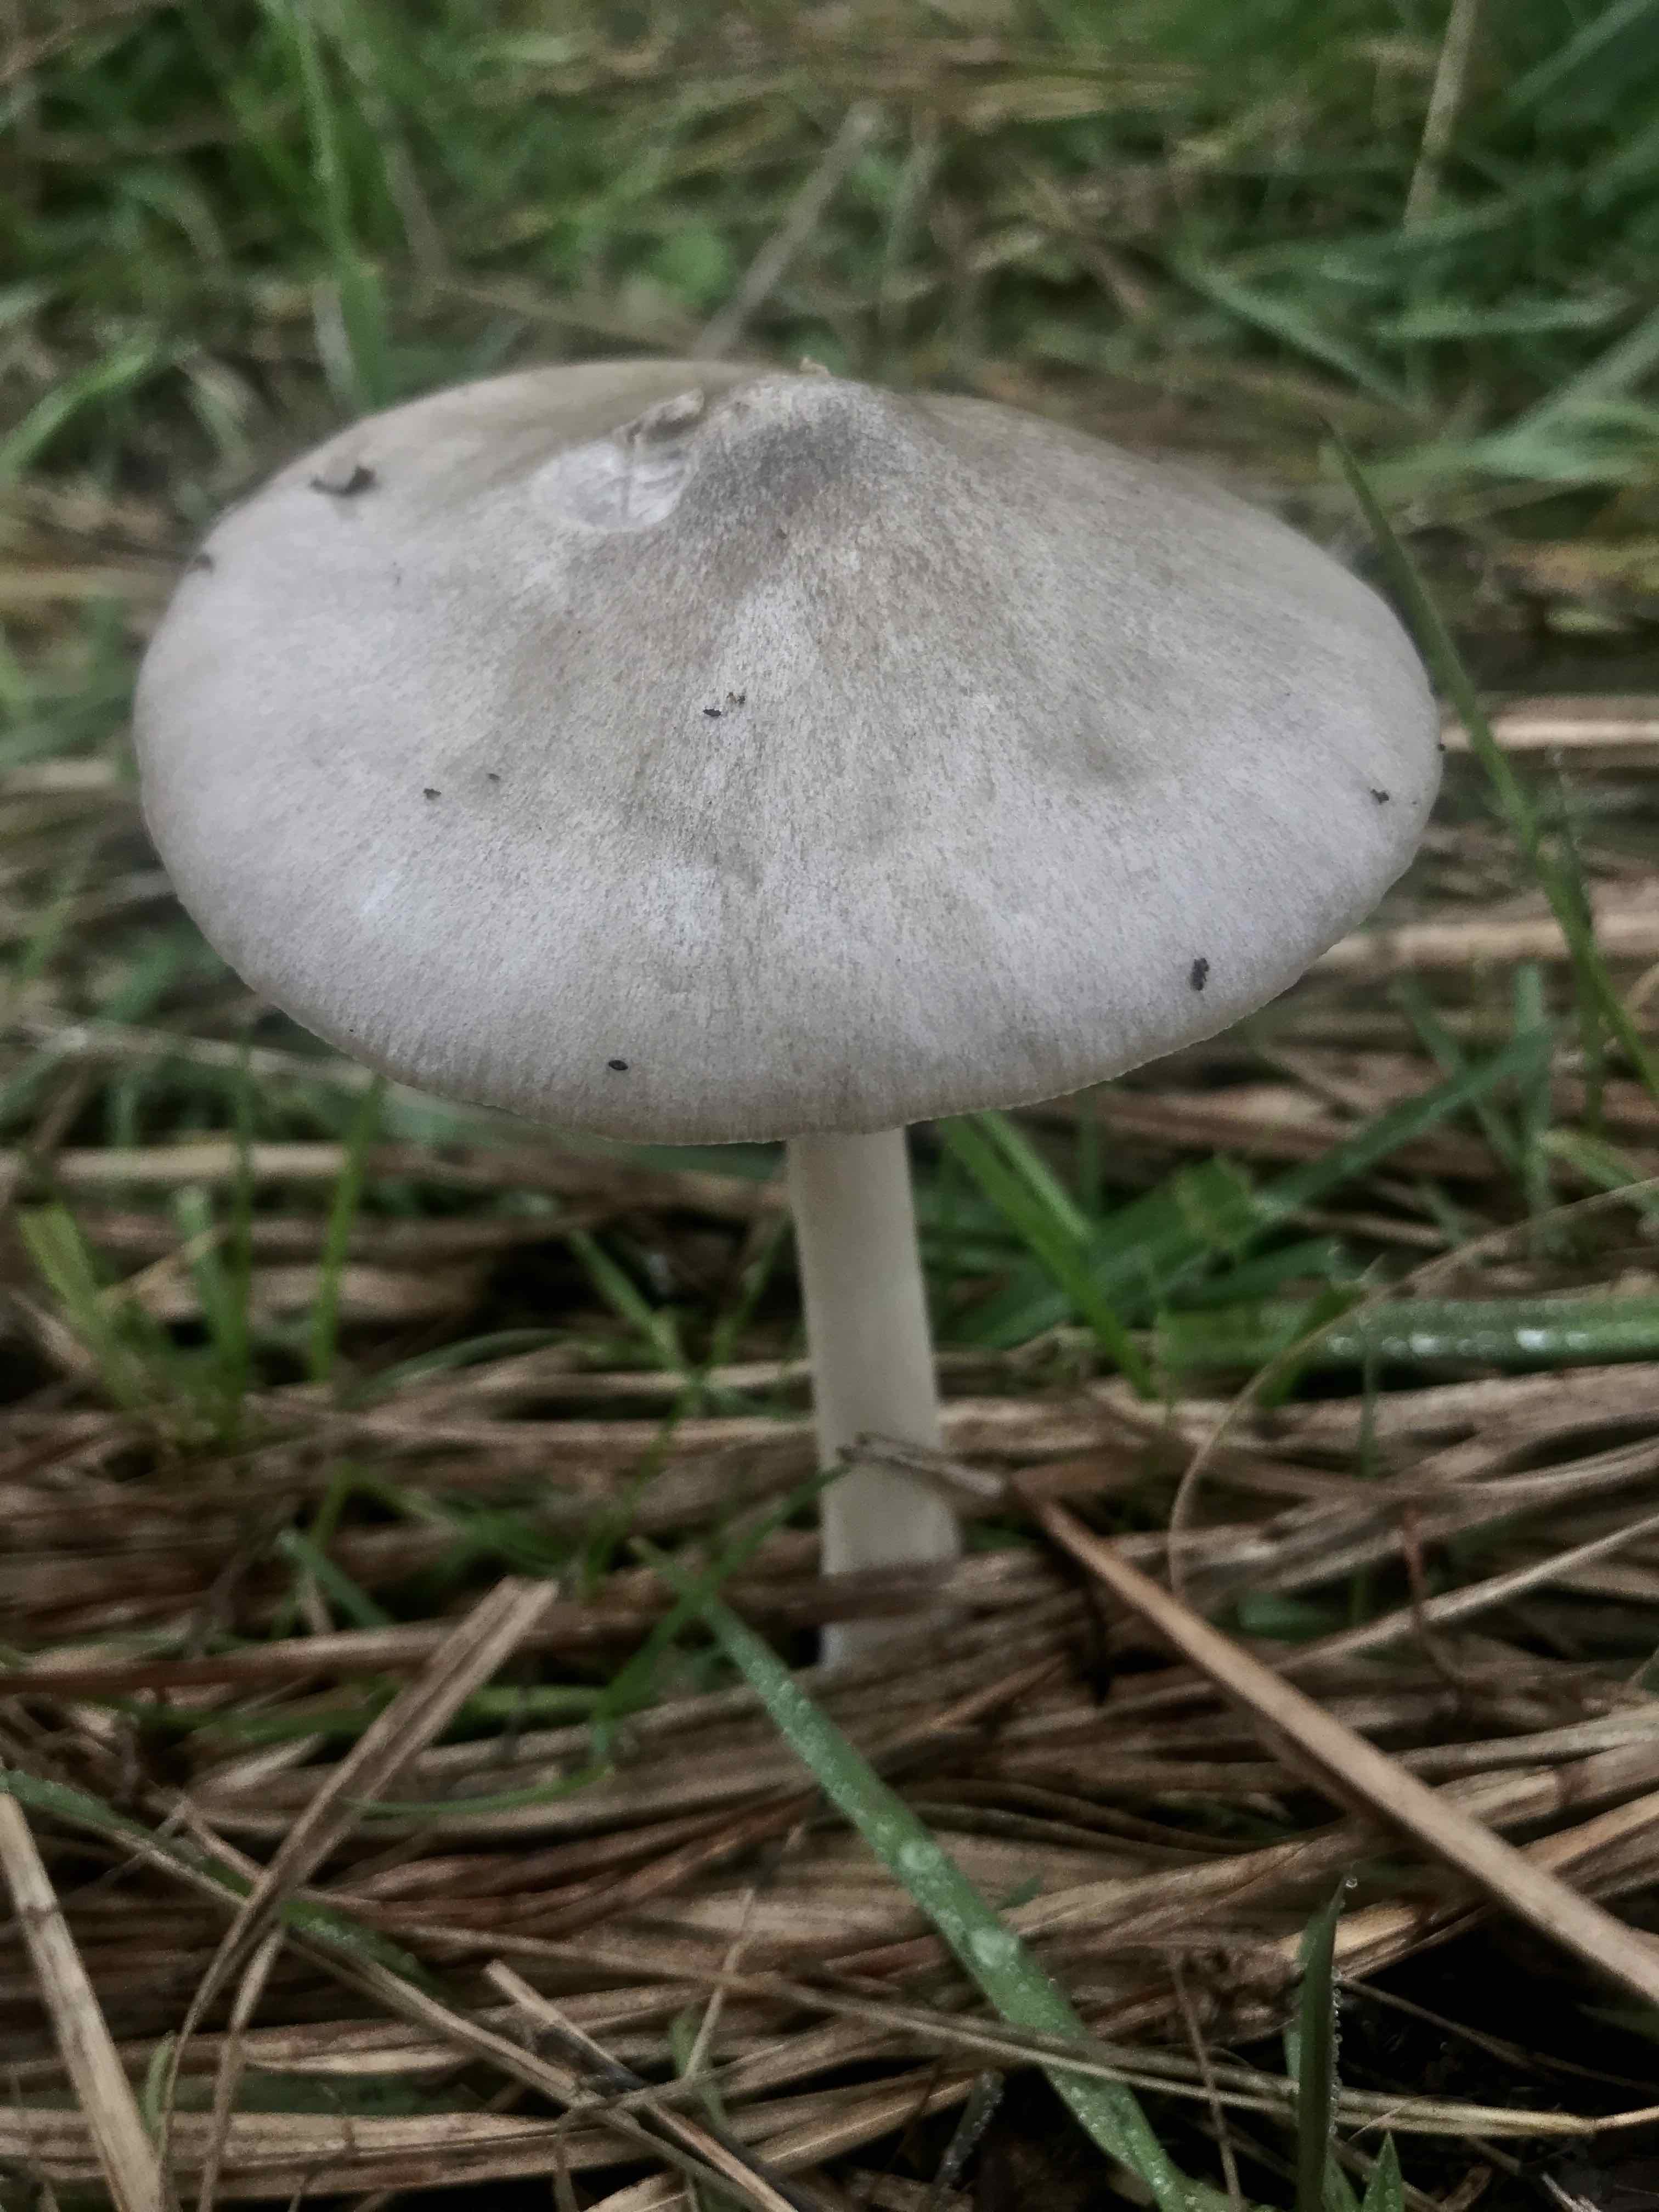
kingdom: Fungi
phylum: Basidiomycota
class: Agaricomycetes
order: Agaricales
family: Pluteaceae
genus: Volvopluteus
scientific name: Volvopluteus gloiocephalus
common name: høj posesvamp
